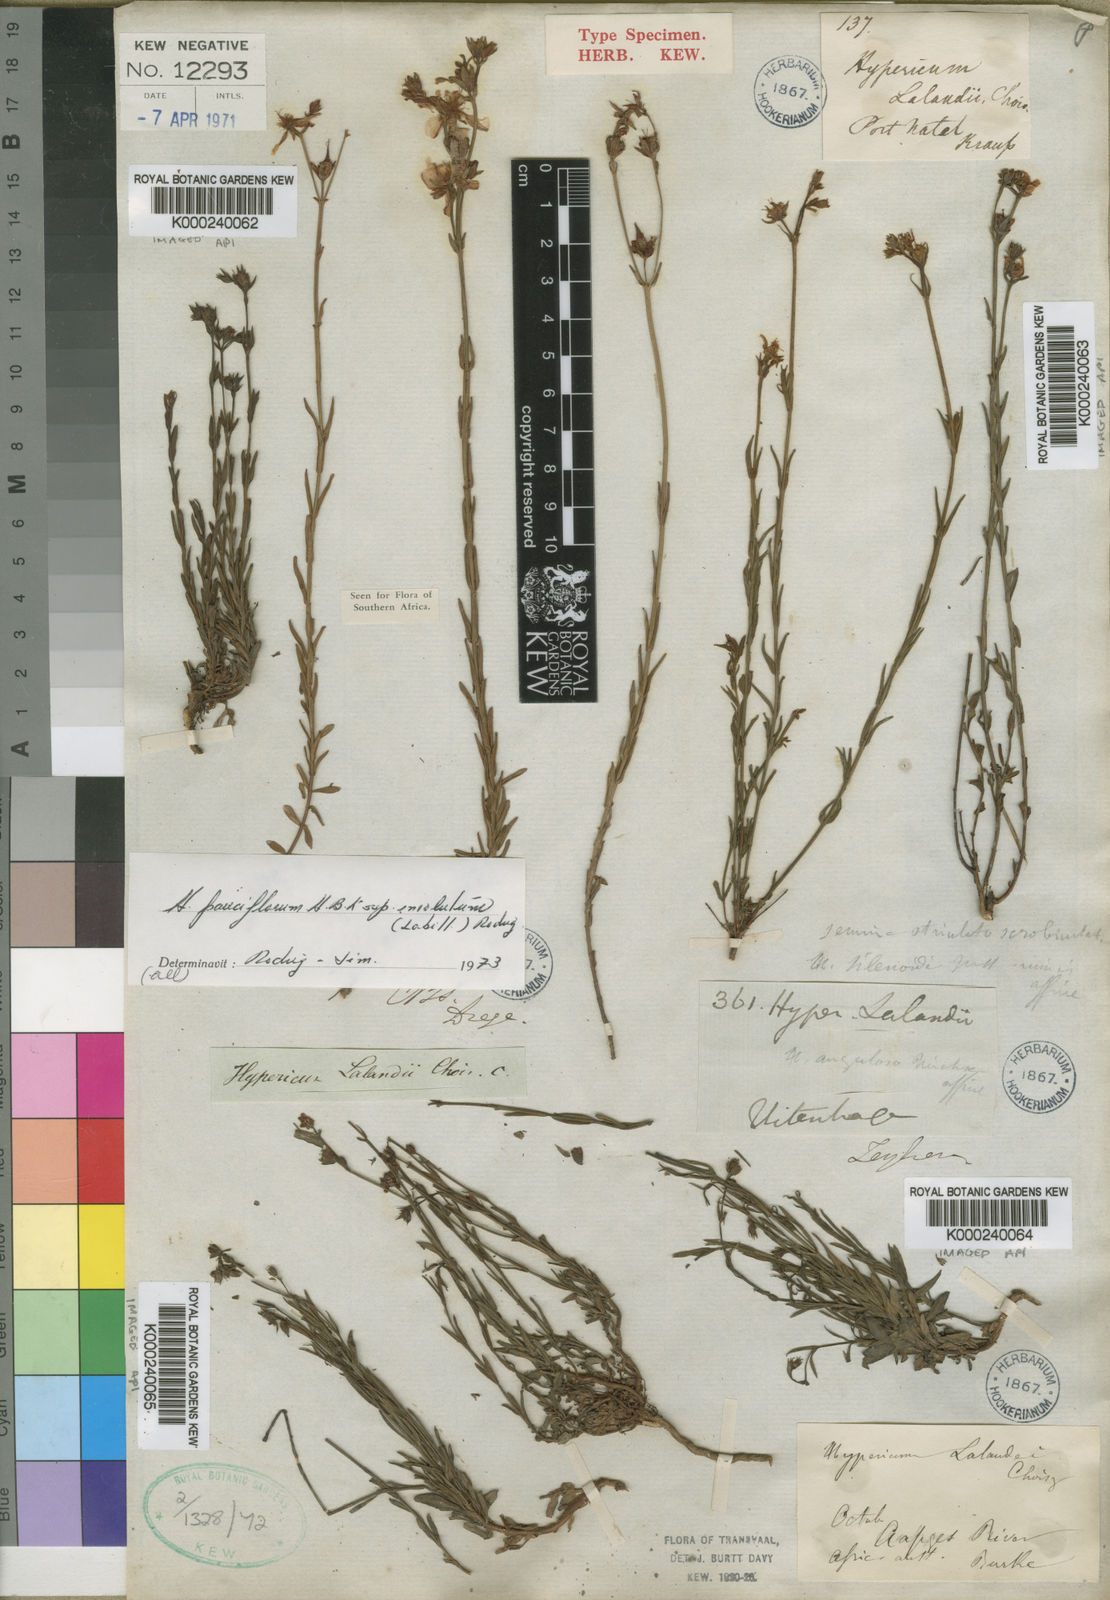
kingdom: Plantae
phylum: Tracheophyta
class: Magnoliopsida
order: Malpighiales
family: Hypericaceae
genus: Hypericum
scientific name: Hypericum lalandii
